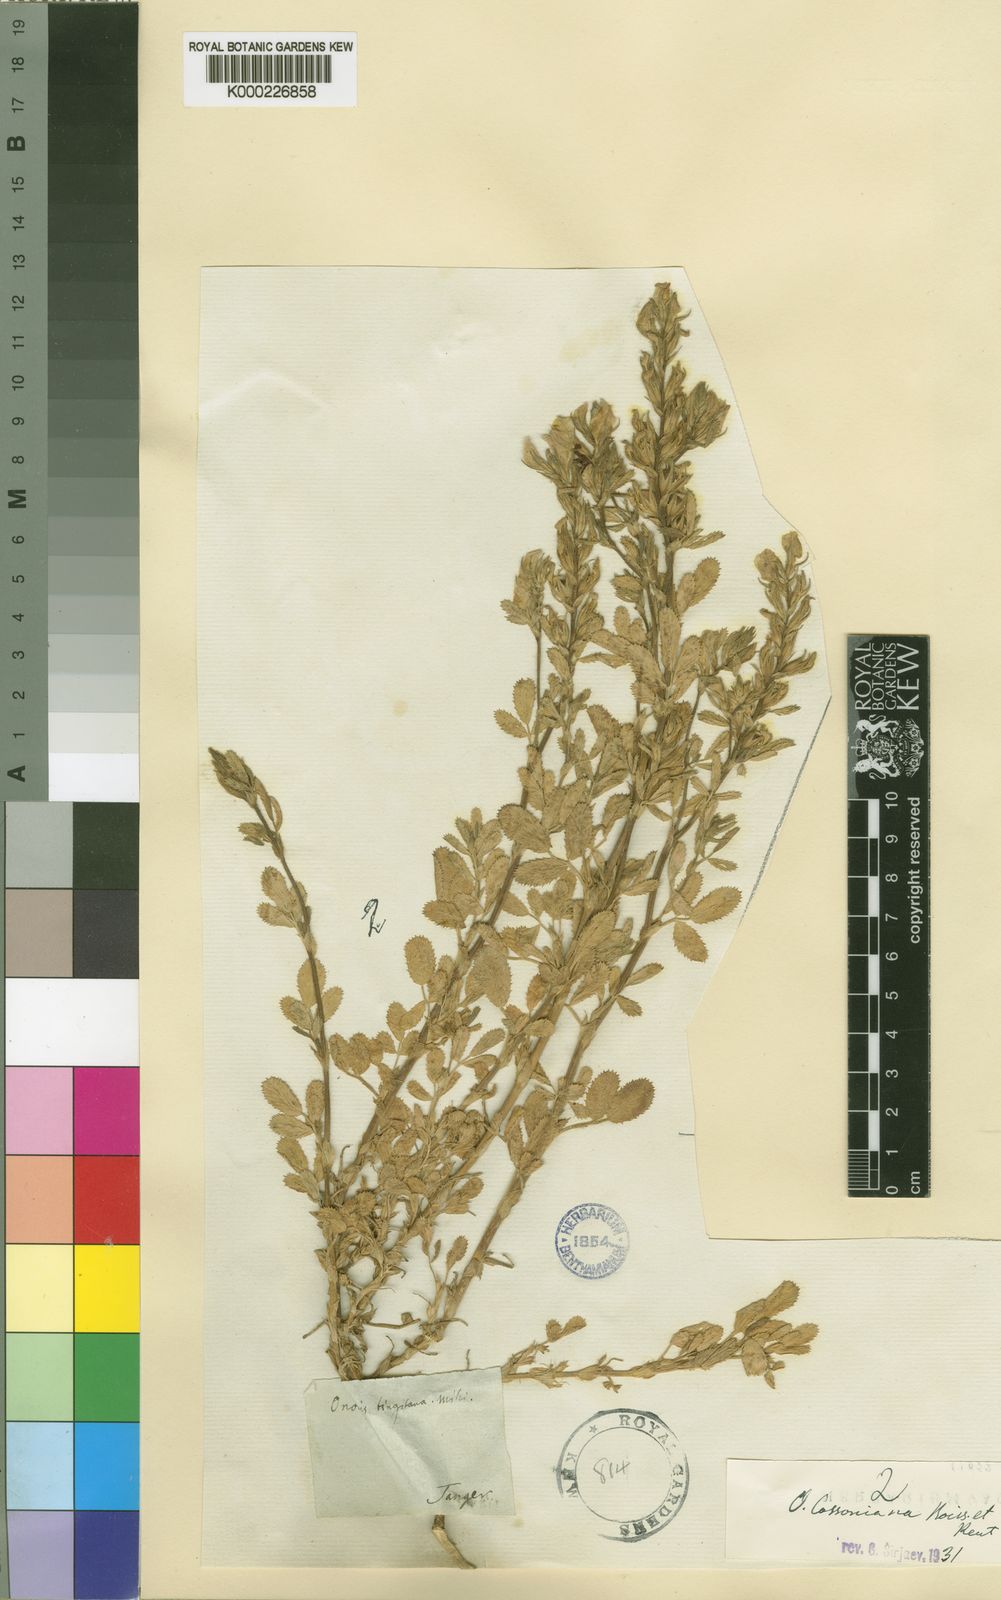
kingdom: Plantae
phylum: Tracheophyta
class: Magnoliopsida
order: Fabales
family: Fabaceae
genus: Ononis
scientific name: Ononis cossoniana
